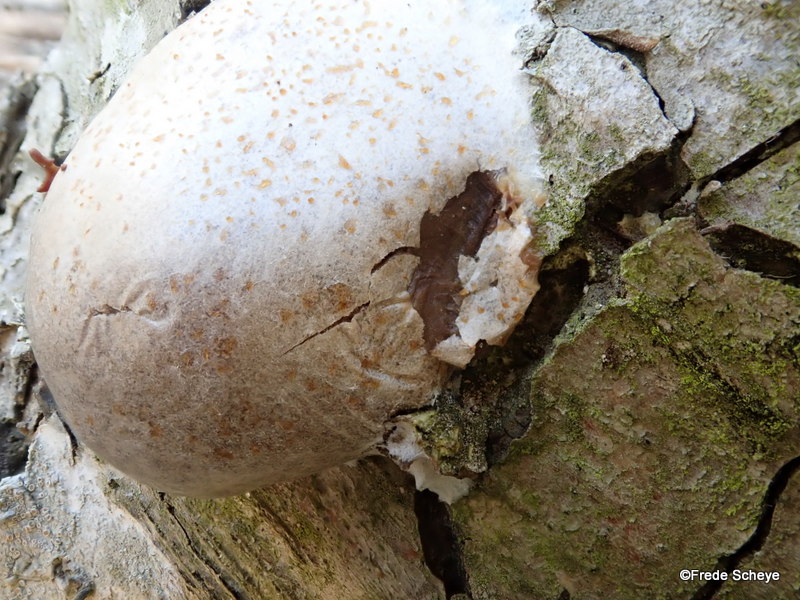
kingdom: Protozoa
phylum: Mycetozoa
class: Myxomycetes
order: Cribrariales
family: Tubiferaceae
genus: Reticularia
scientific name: Reticularia lycoperdon
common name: skinnende støvpude
